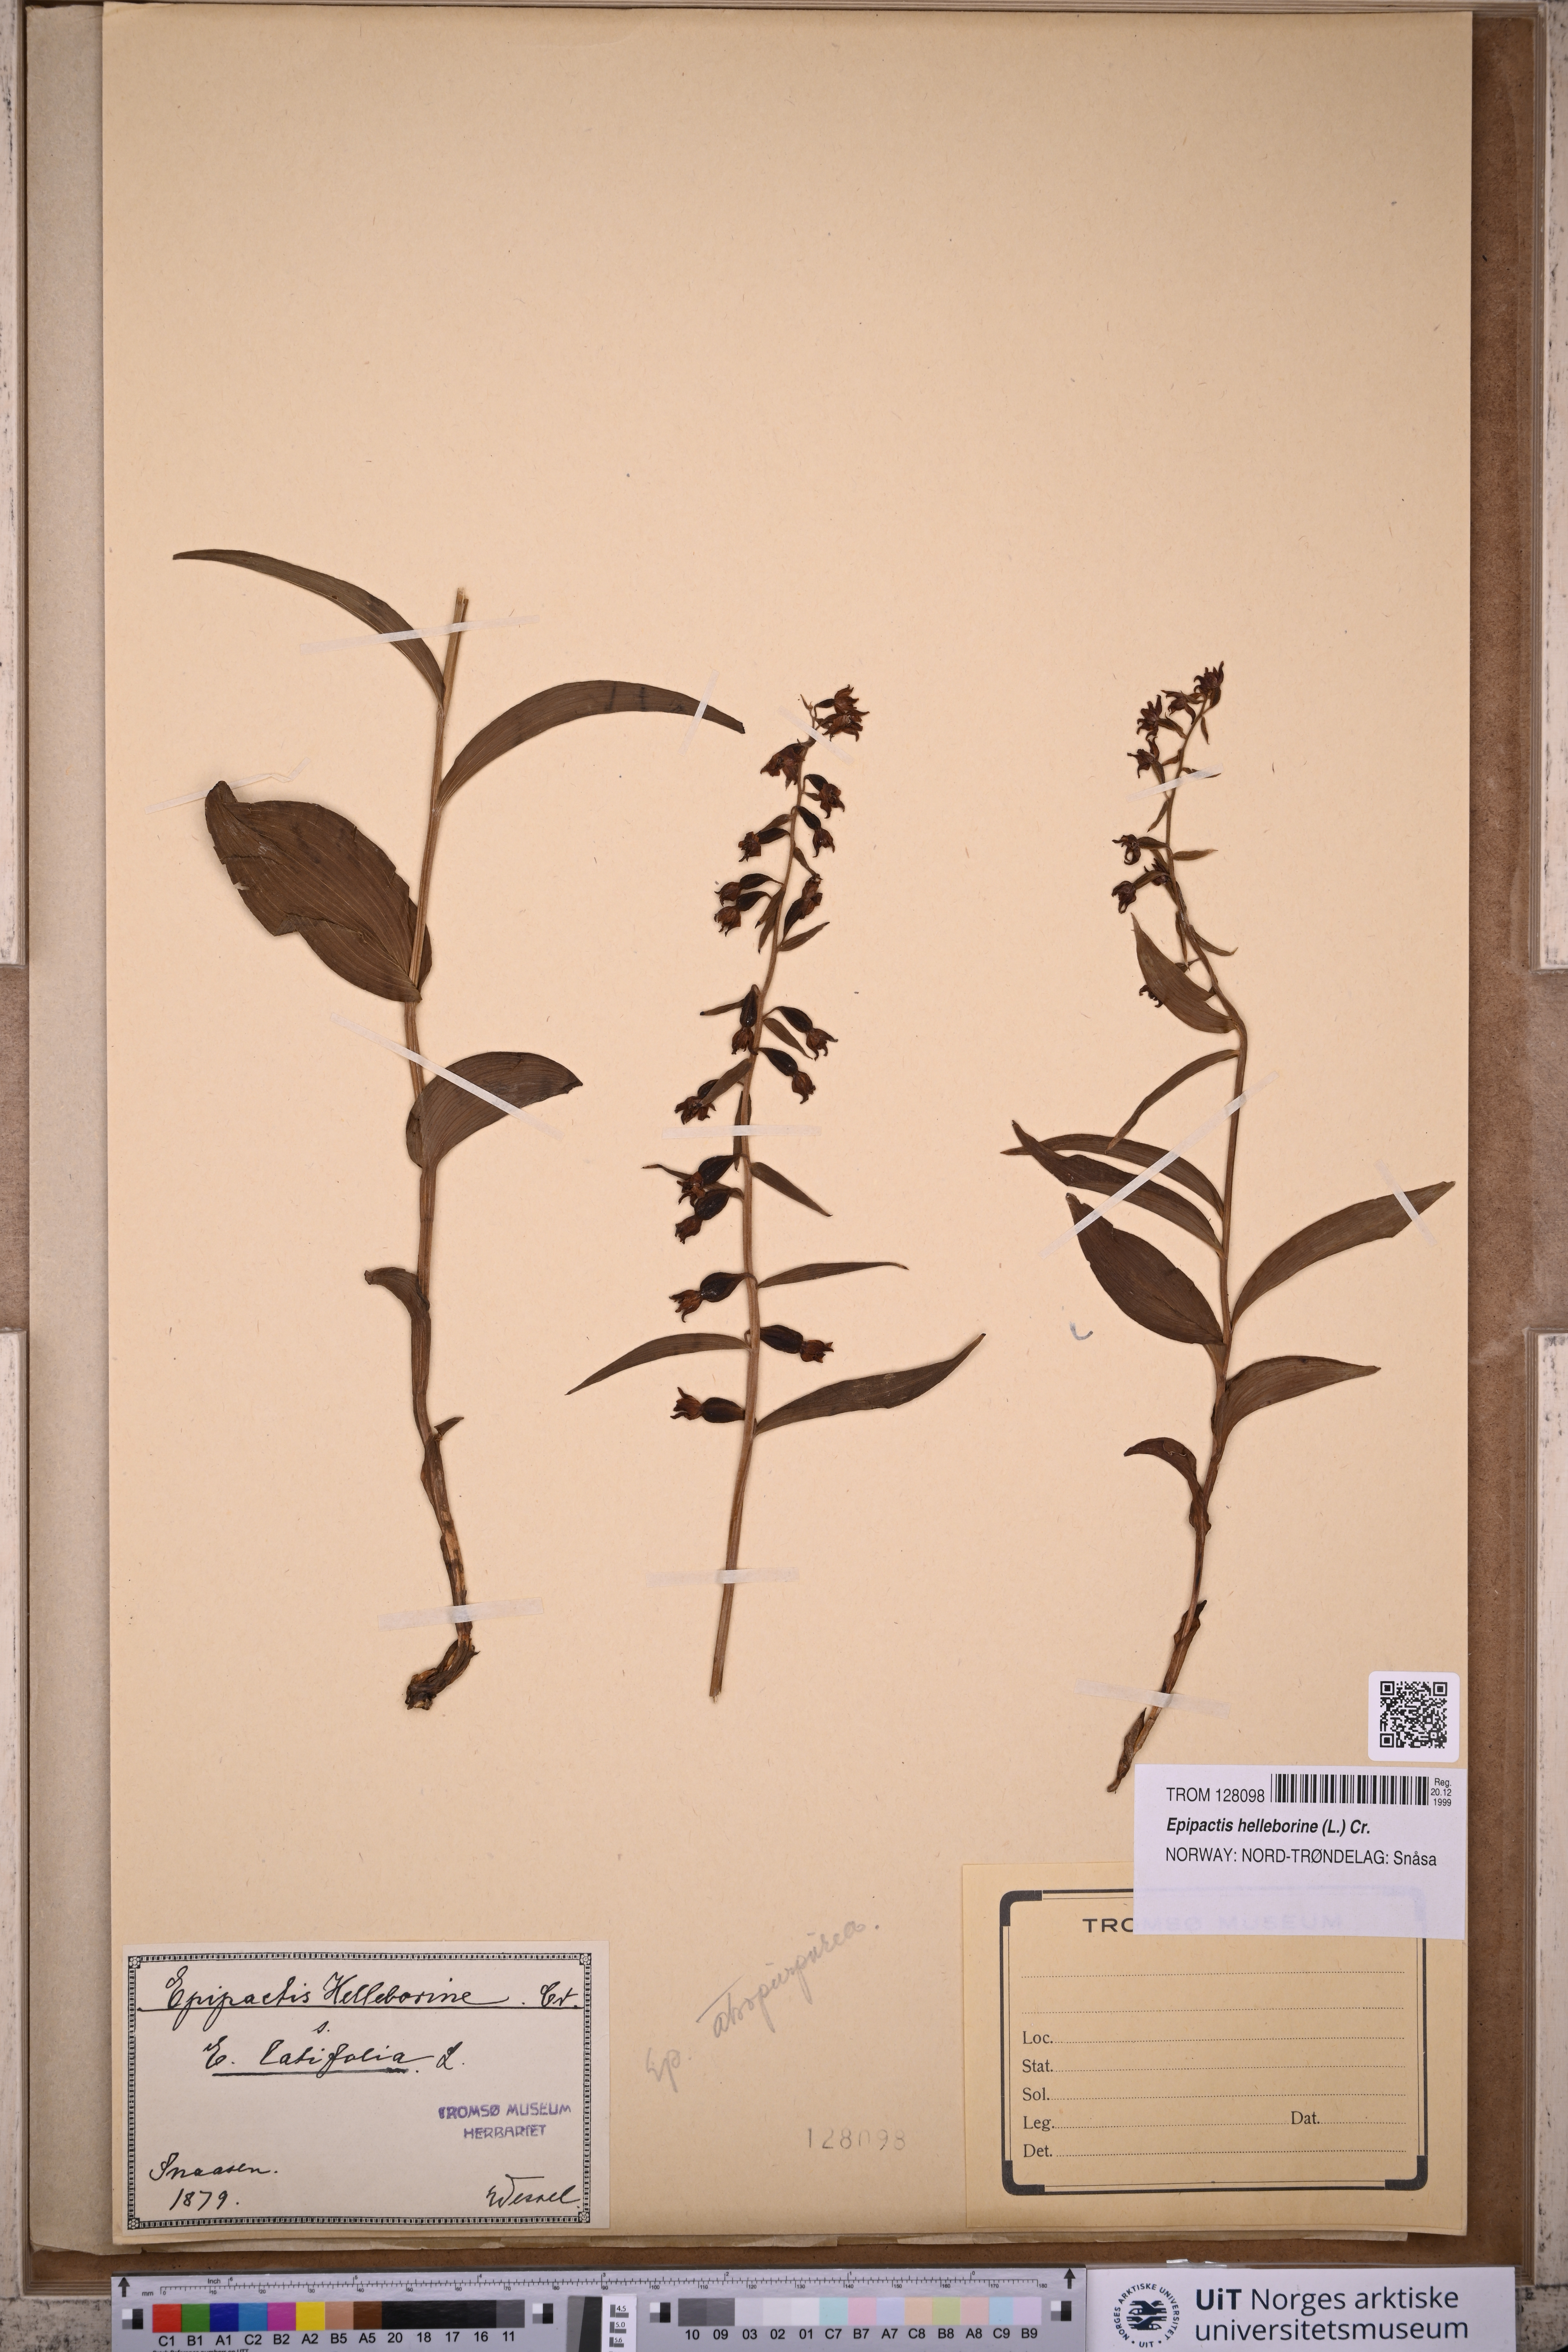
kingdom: Plantae
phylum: Tracheophyta
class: Liliopsida
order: Asparagales
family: Orchidaceae
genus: Epipactis
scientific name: Epipactis helleborine
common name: Broad-leaved helleborine
